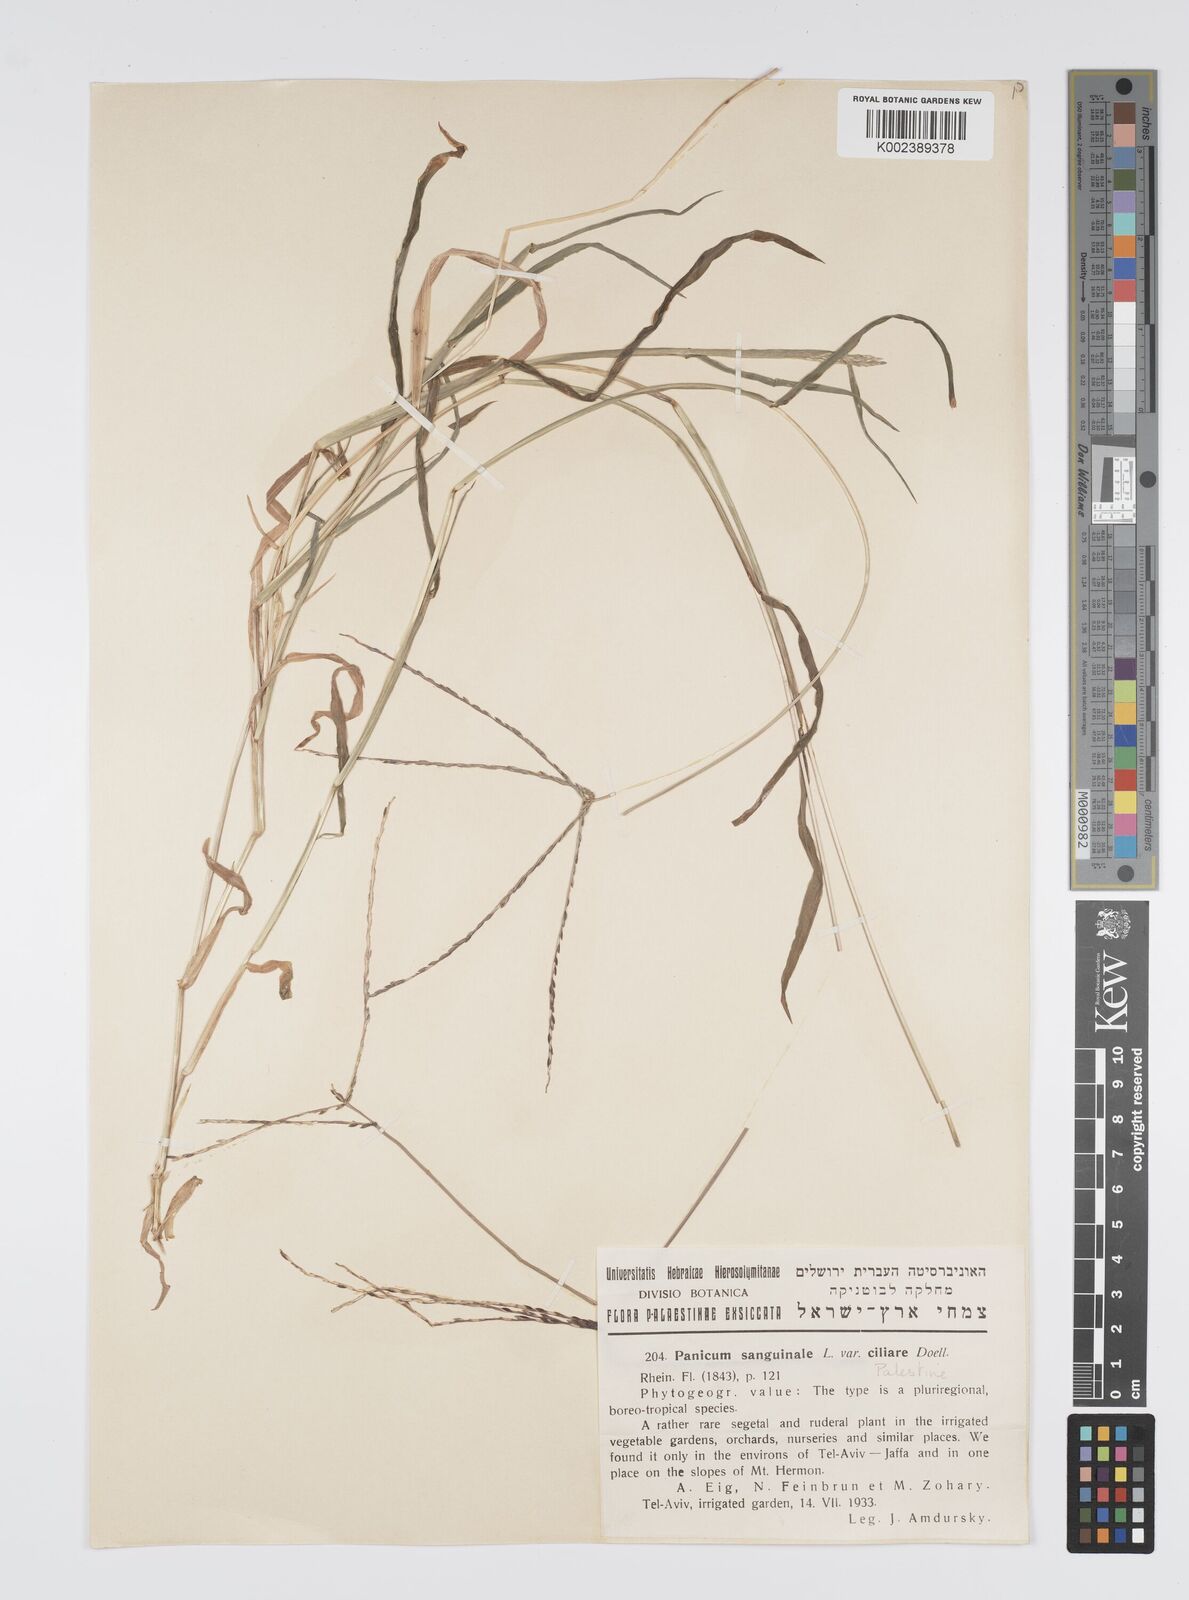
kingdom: Plantae
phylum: Tracheophyta
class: Liliopsida
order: Poales
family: Poaceae
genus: Digitaria
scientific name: Digitaria sanguinalis
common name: Hairy crabgrass
